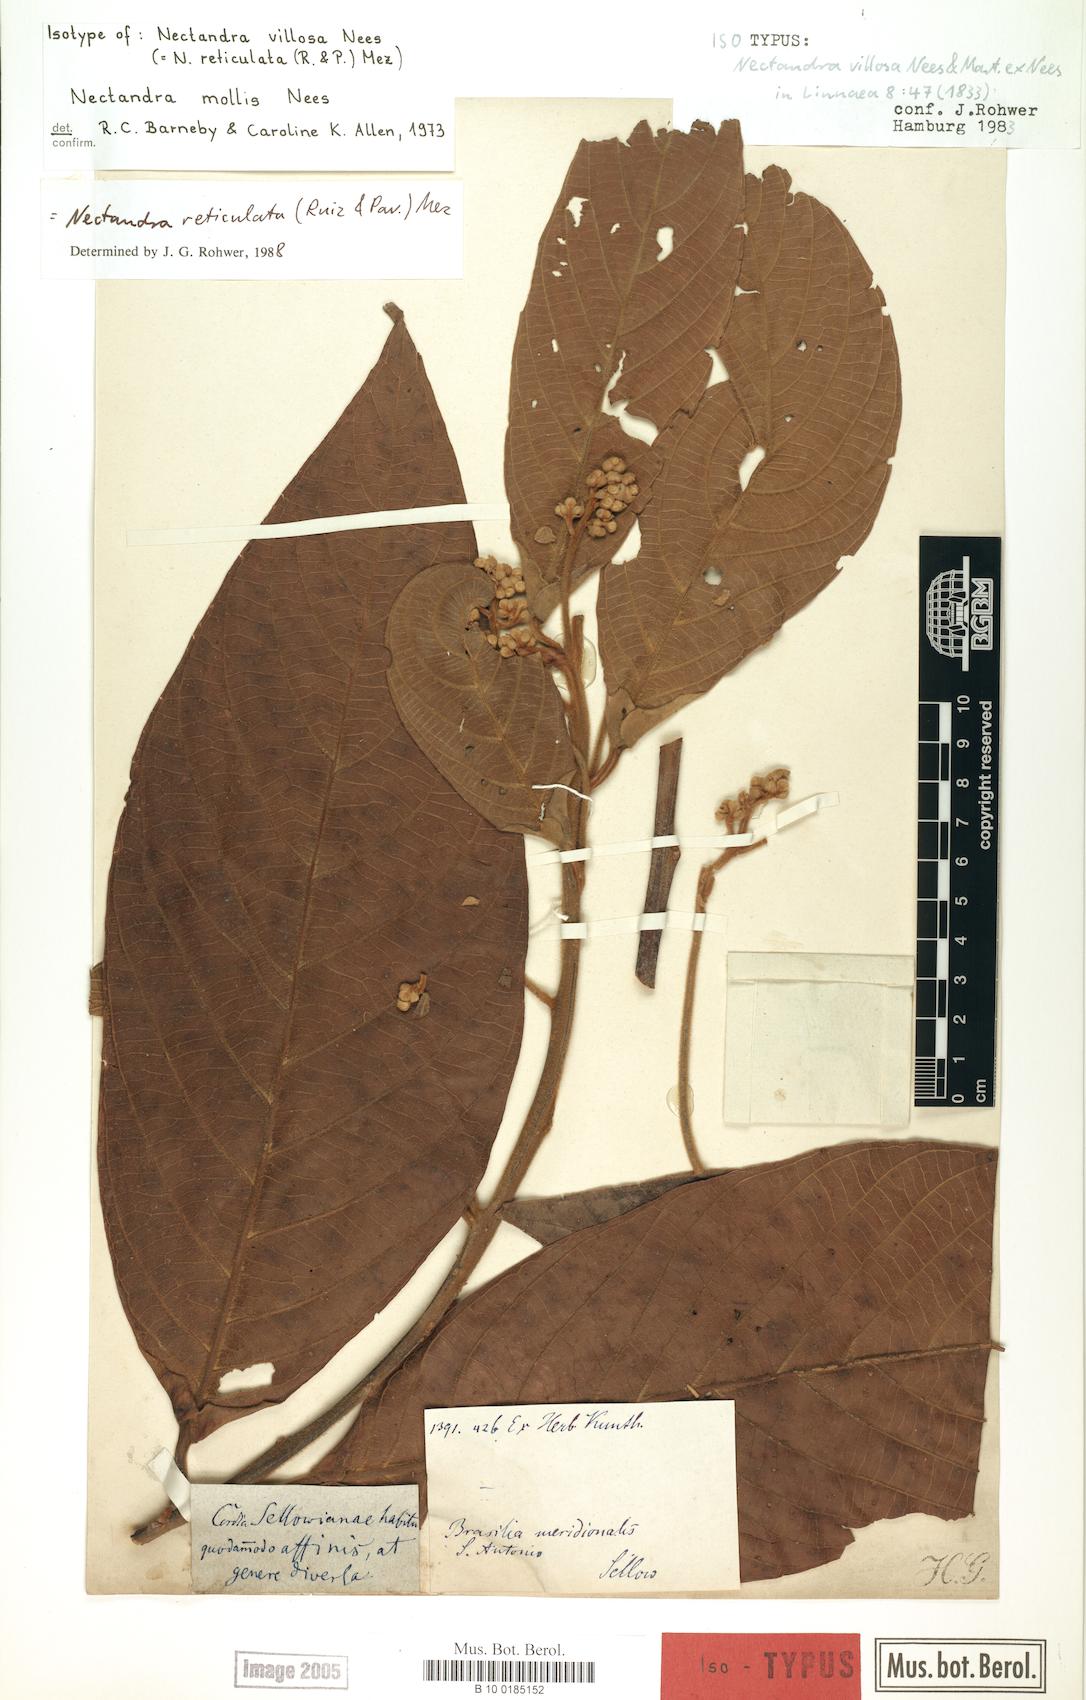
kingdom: Plantae
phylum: Tracheophyta
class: Magnoliopsida
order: Laurales
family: Lauraceae
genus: Nectandra
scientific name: Nectandra villosa
